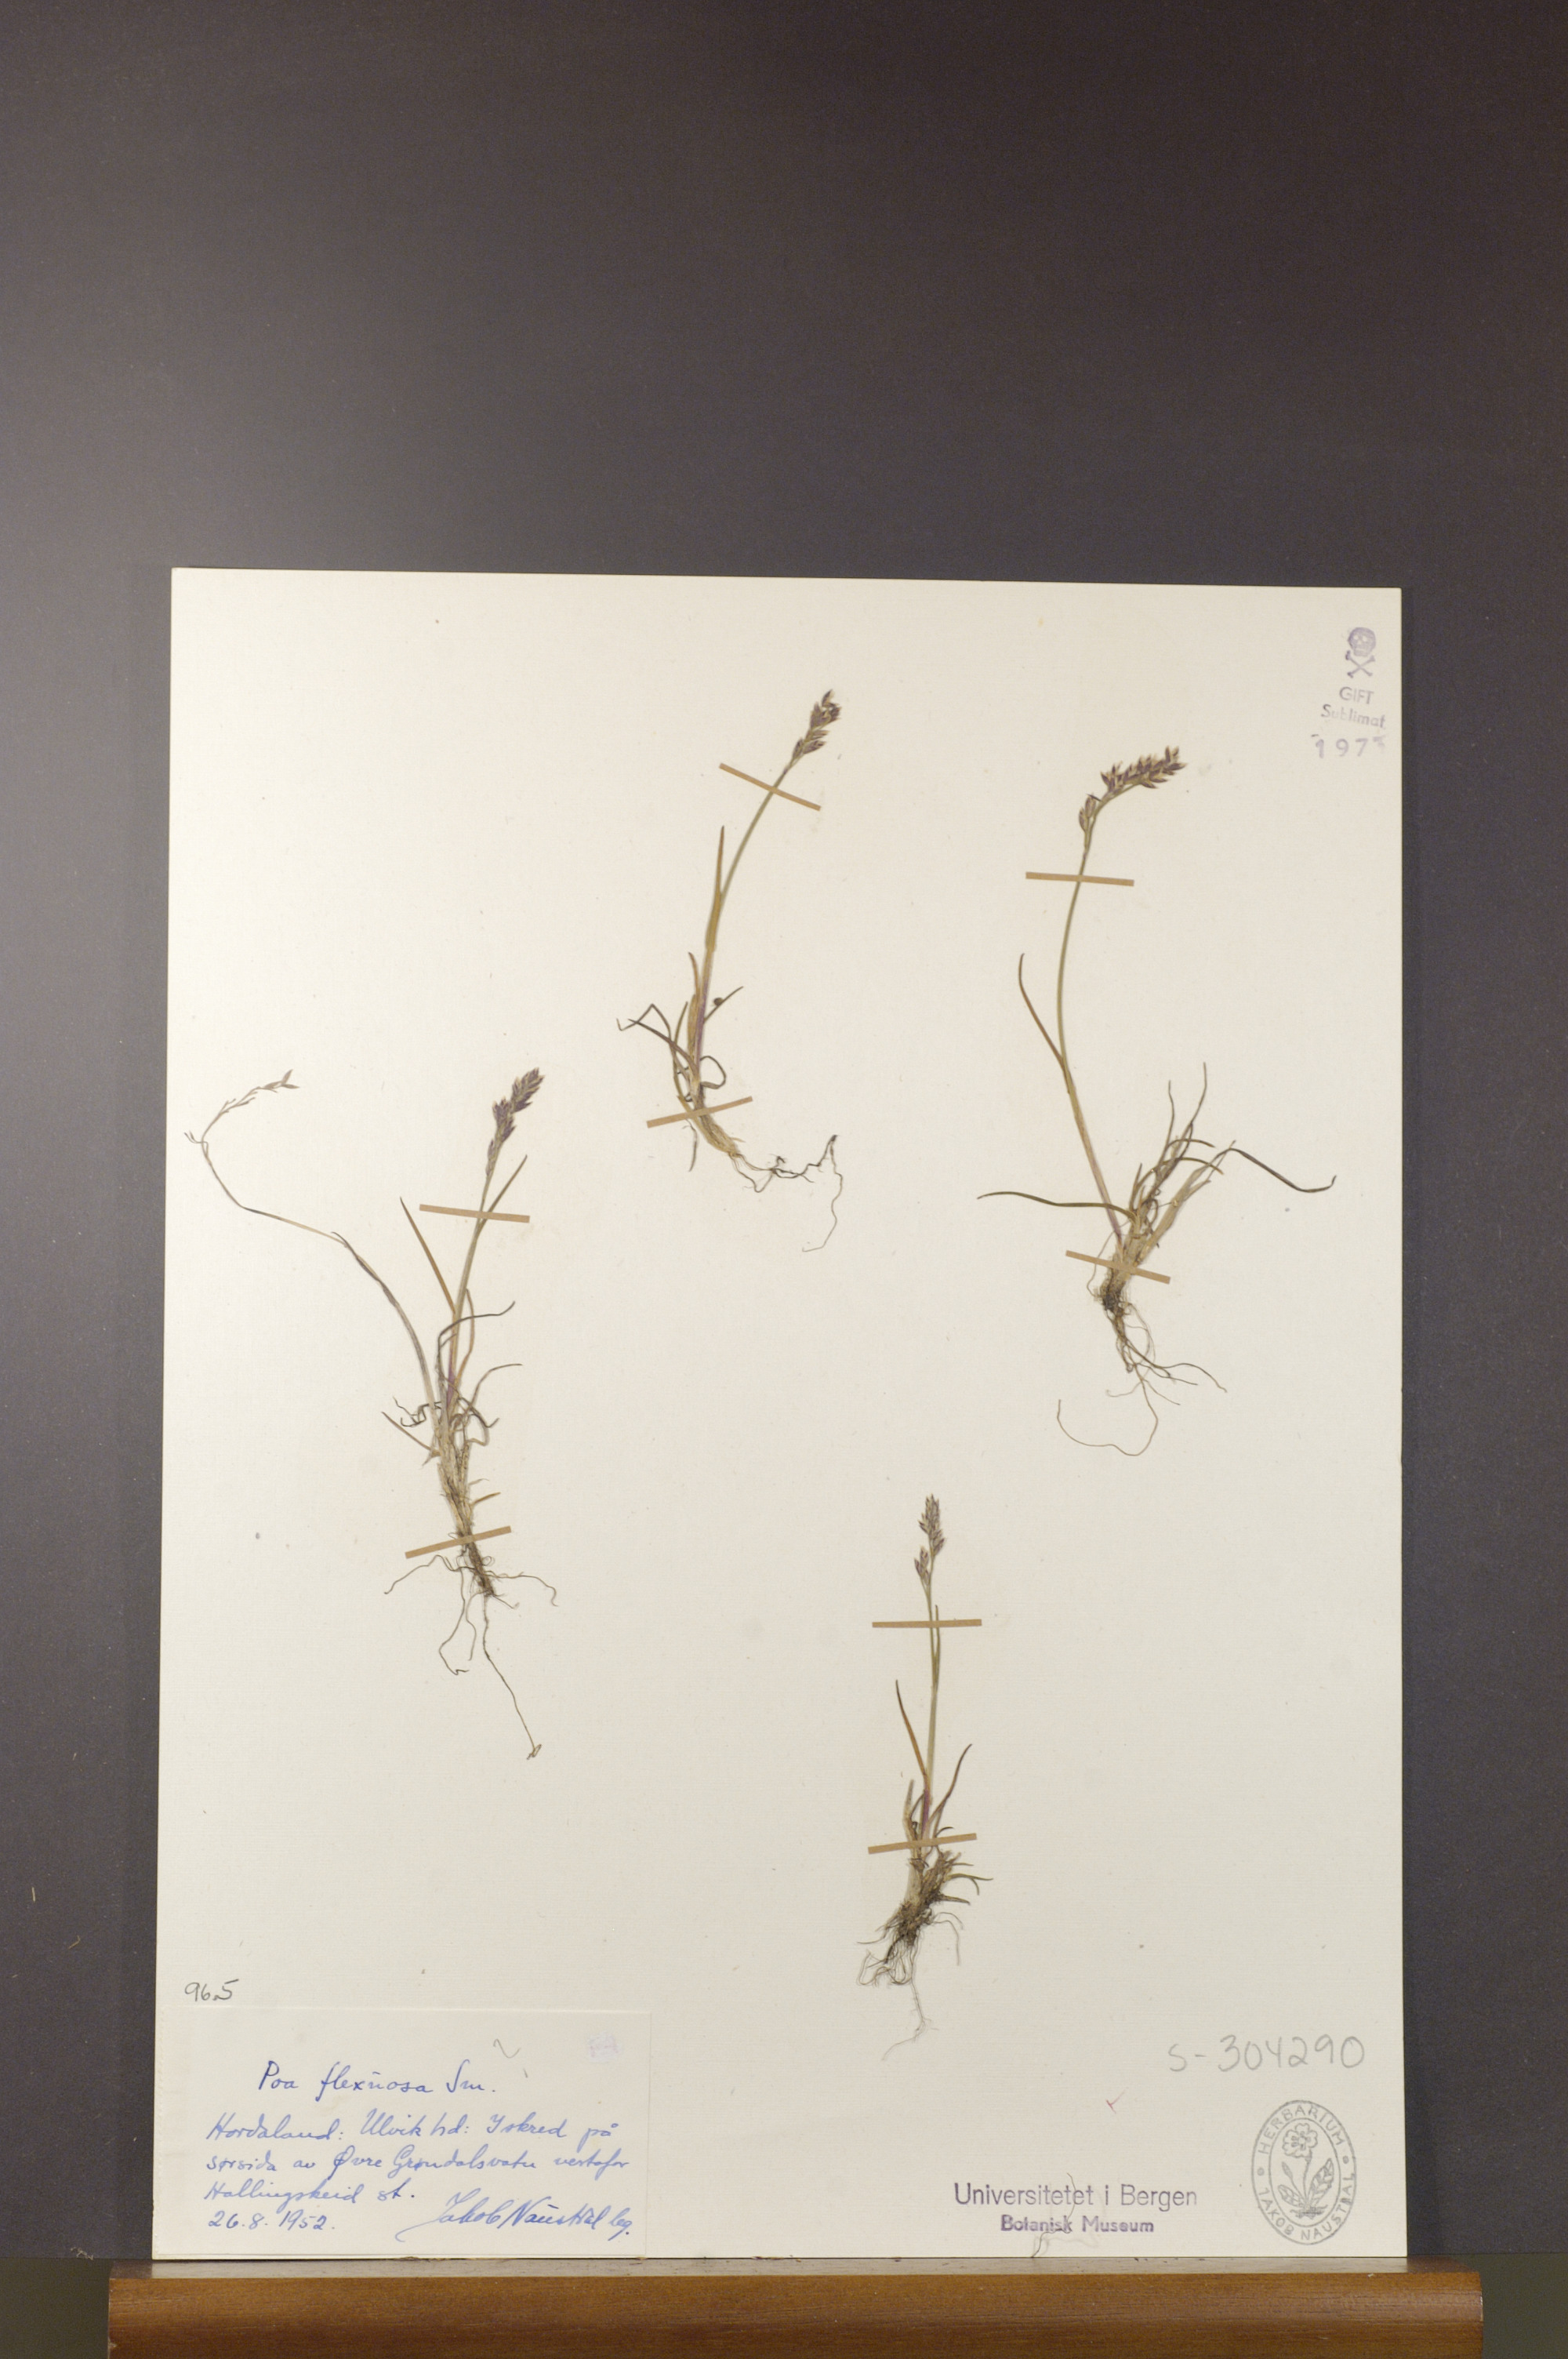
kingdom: Plantae
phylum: Tracheophyta
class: Liliopsida
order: Poales
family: Poaceae
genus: Poa
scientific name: Poa flexuosa
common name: Wavy meadow-grass
